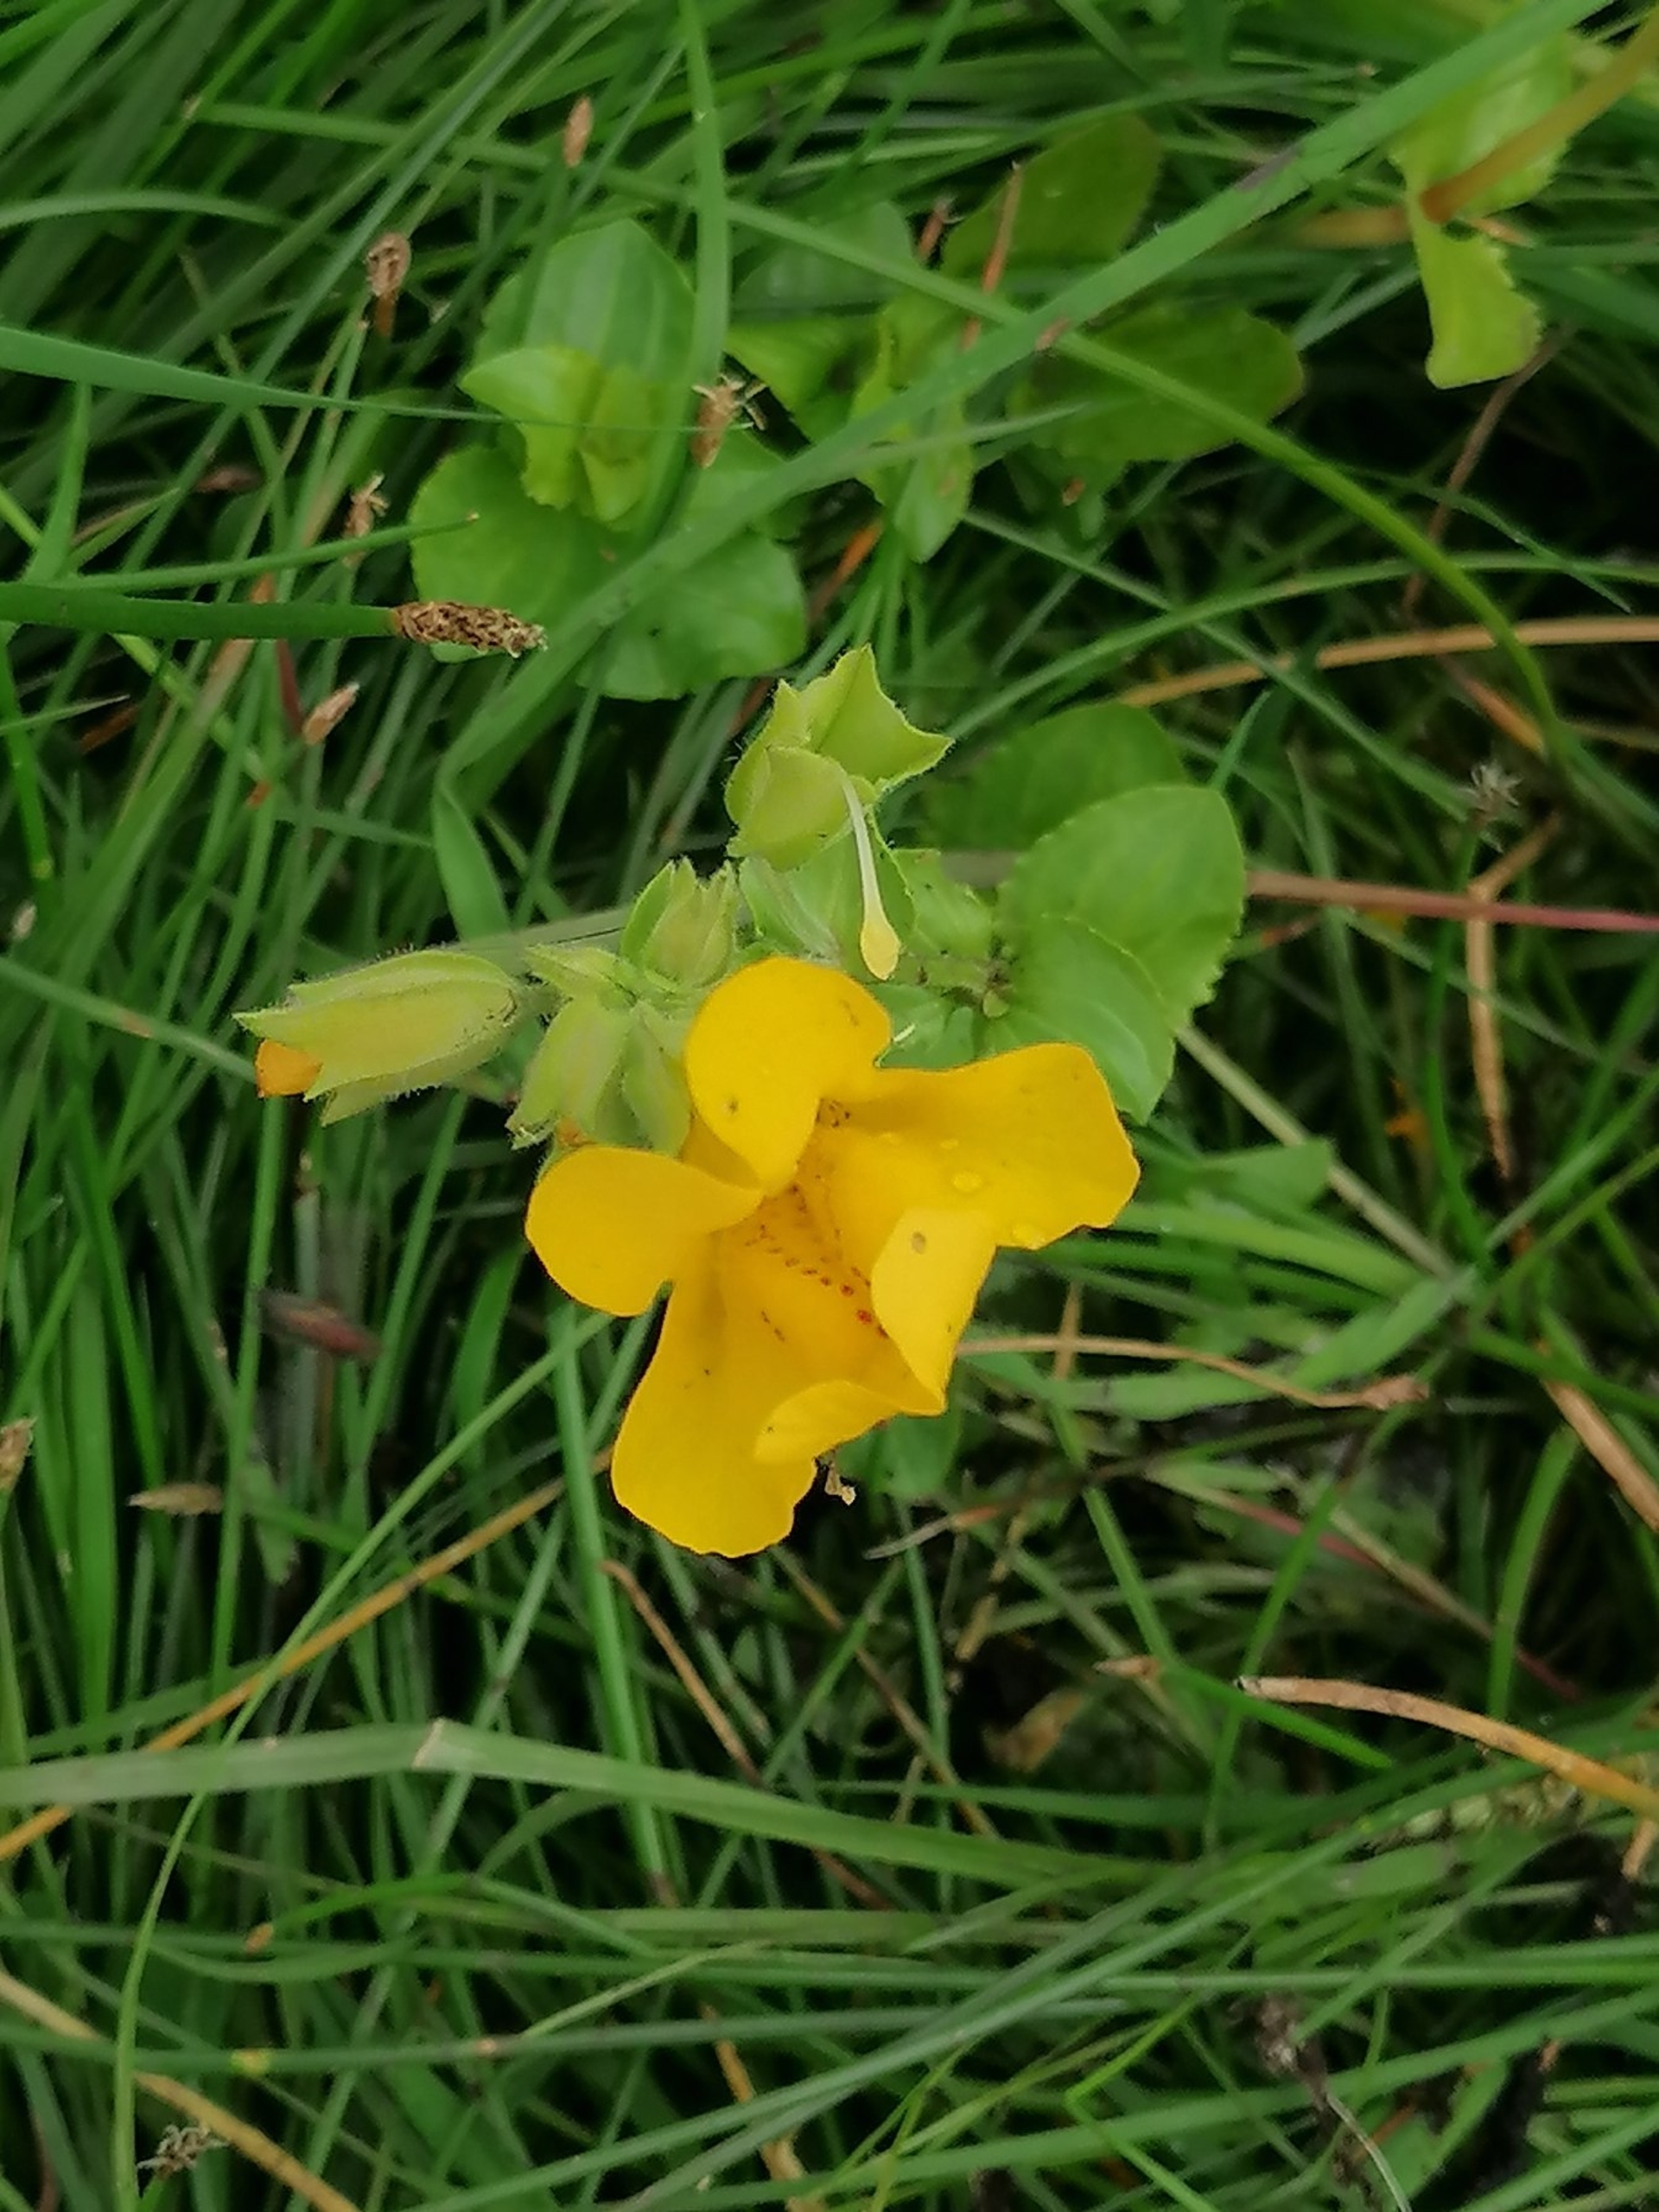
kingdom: Plantae
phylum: Tracheophyta
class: Magnoliopsida
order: Lamiales
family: Phrymaceae
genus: Erythranthe
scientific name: Erythranthe guttata
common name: Abeblomst
